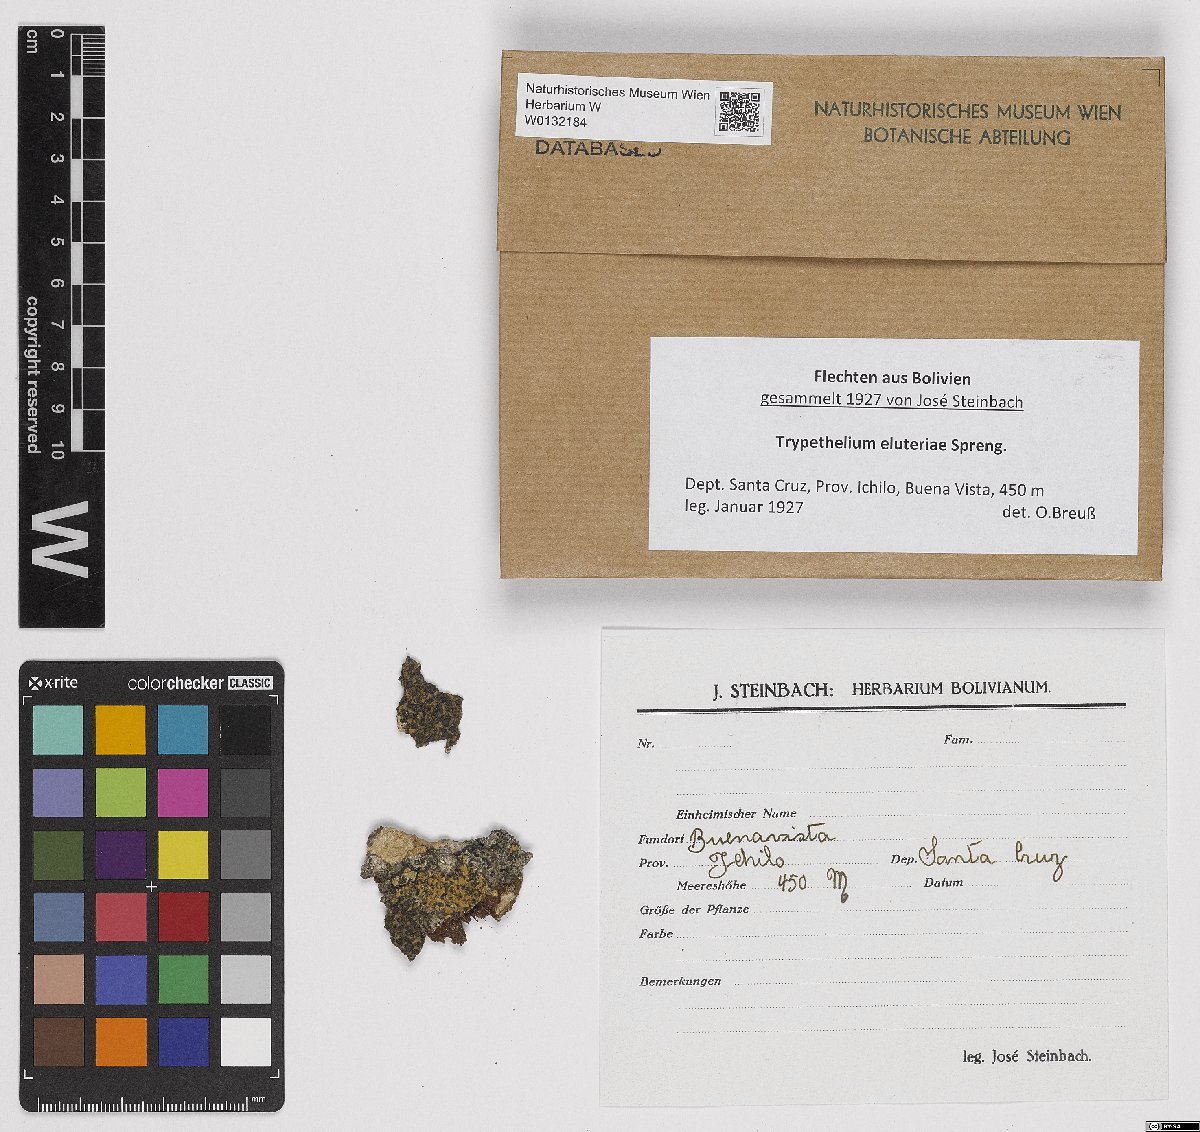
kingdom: Fungi
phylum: Ascomycota
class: Dothideomycetes
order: Trypetheliales
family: Trypetheliaceae
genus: Trypethelium
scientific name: Trypethelium eluteriae
